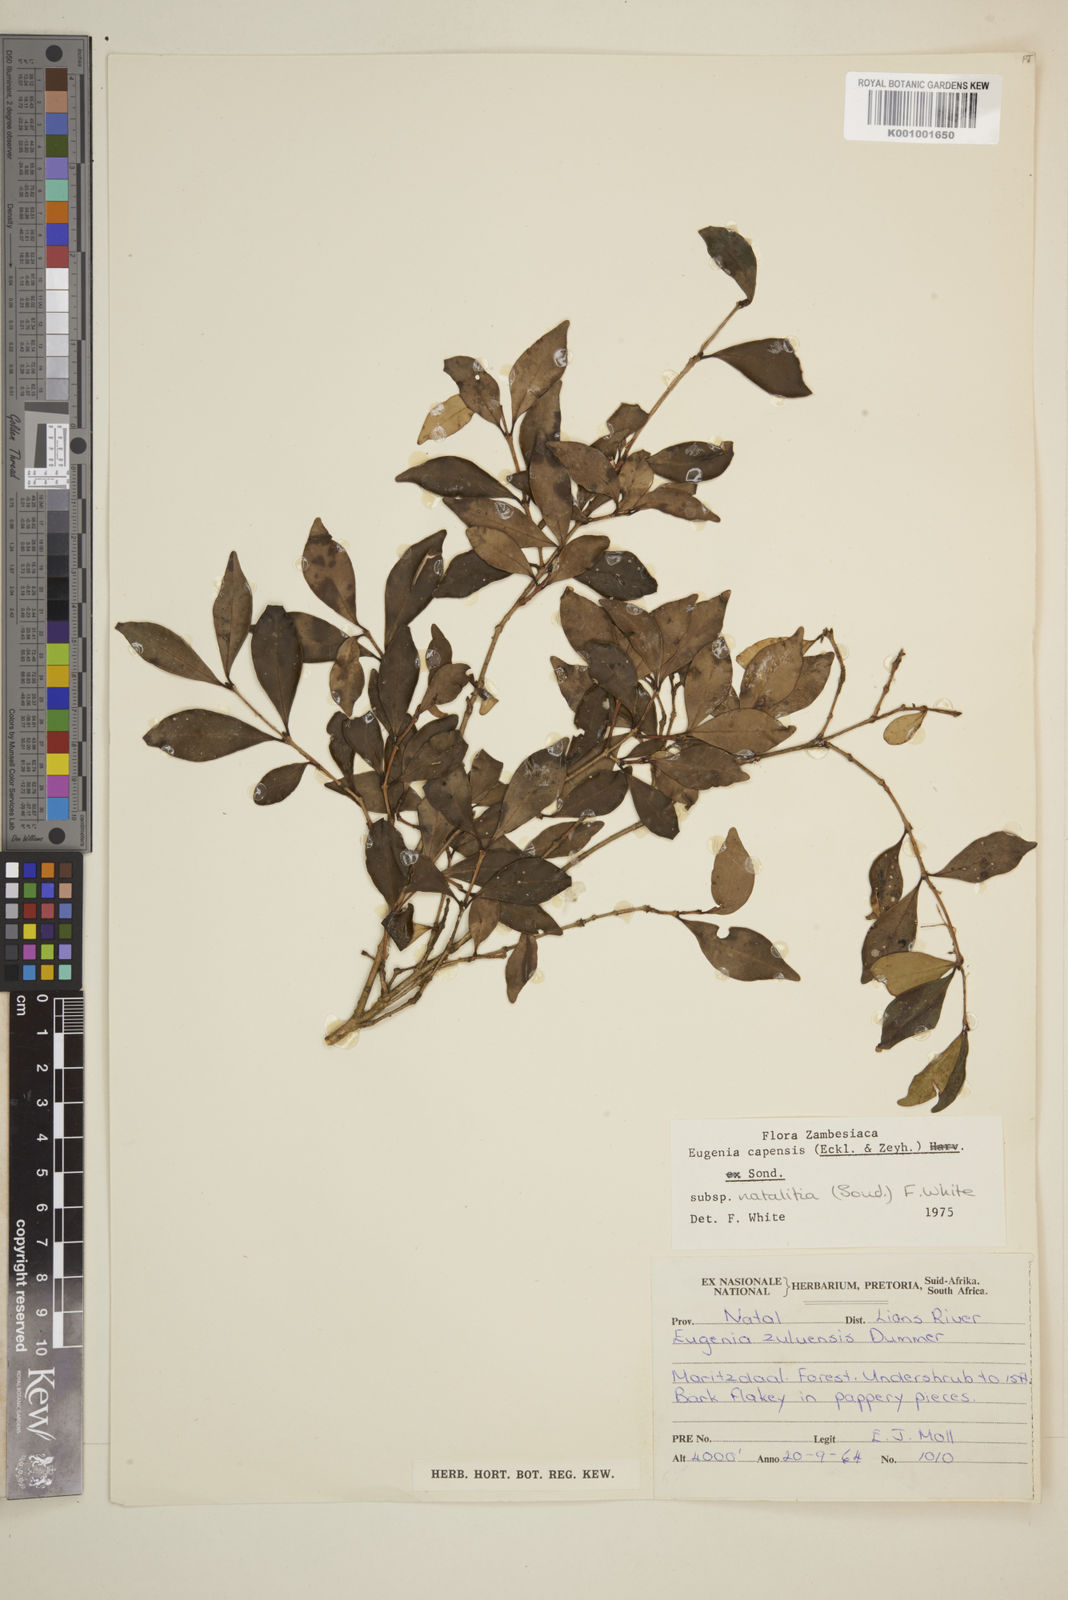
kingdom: Plantae
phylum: Tracheophyta
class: Magnoliopsida
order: Myrtales
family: Myrtaceae
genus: Eugenia
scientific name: Eugenia natalitia
